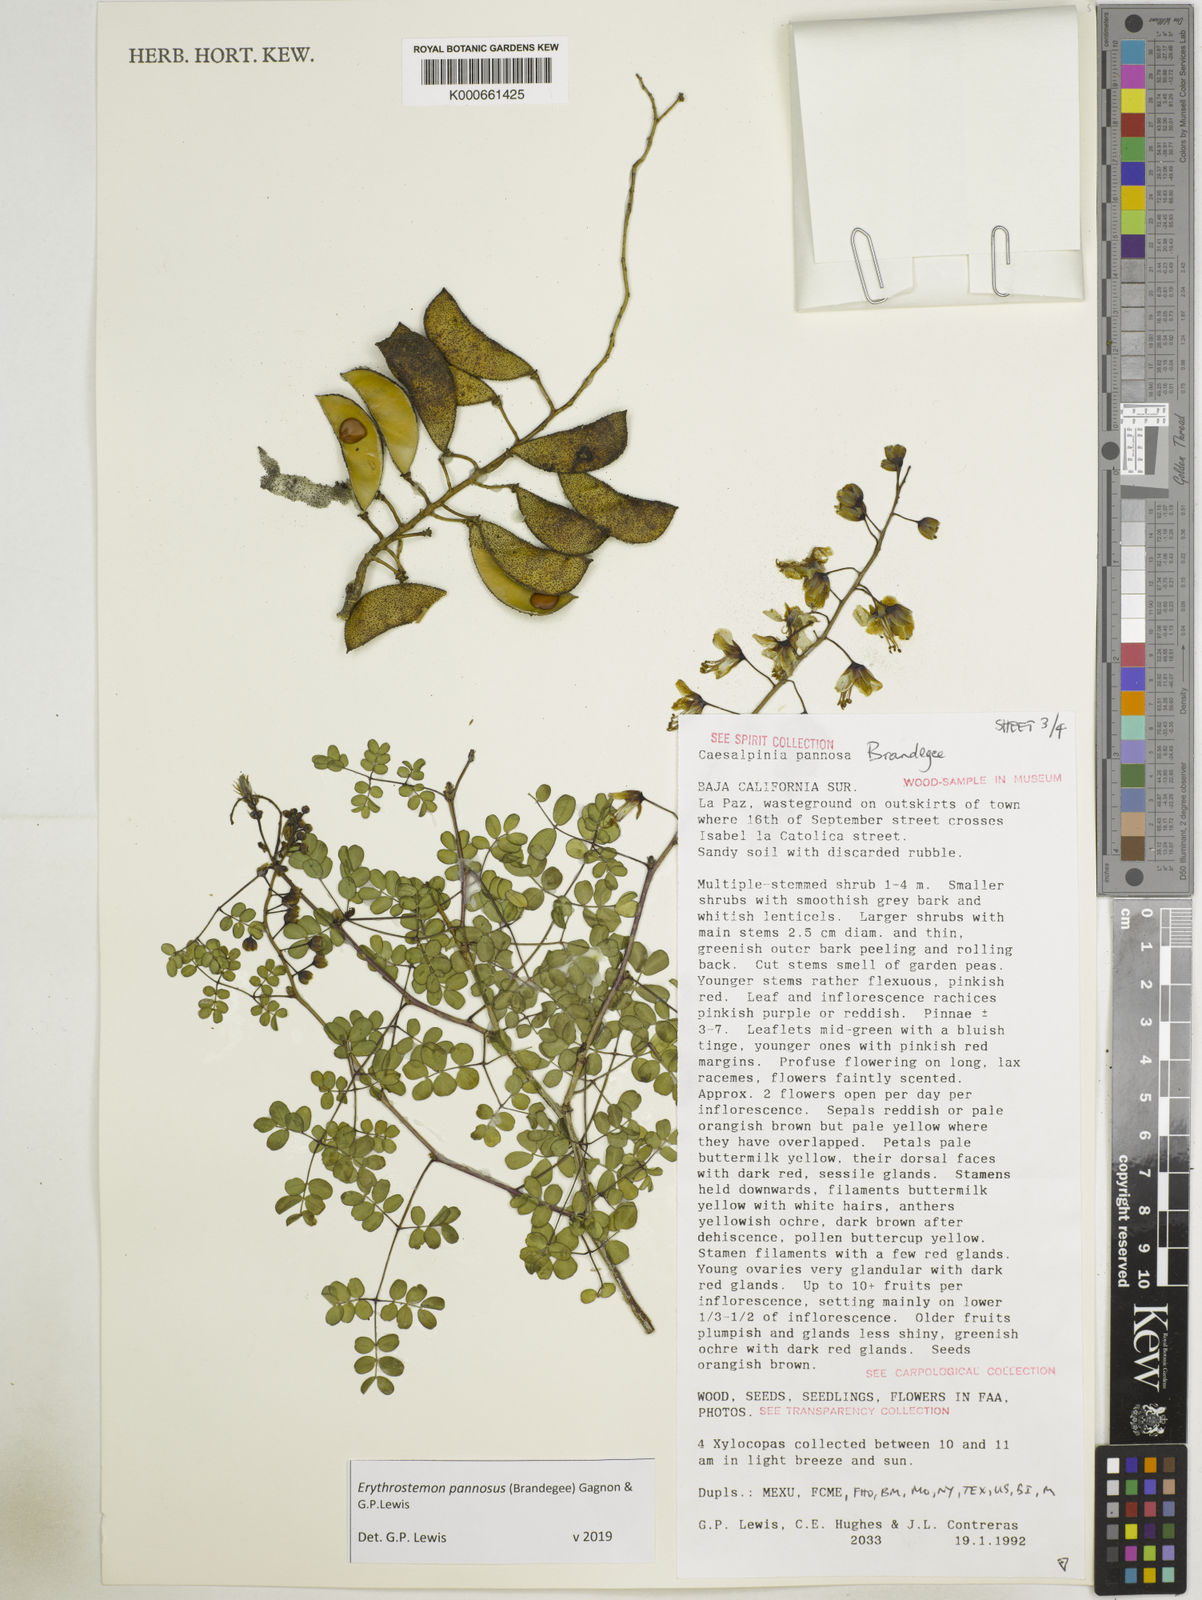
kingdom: Plantae
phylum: Tracheophyta
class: Magnoliopsida
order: Fabales
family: Fabaceae
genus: Erythrostemon
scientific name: Erythrostemon pannosus
